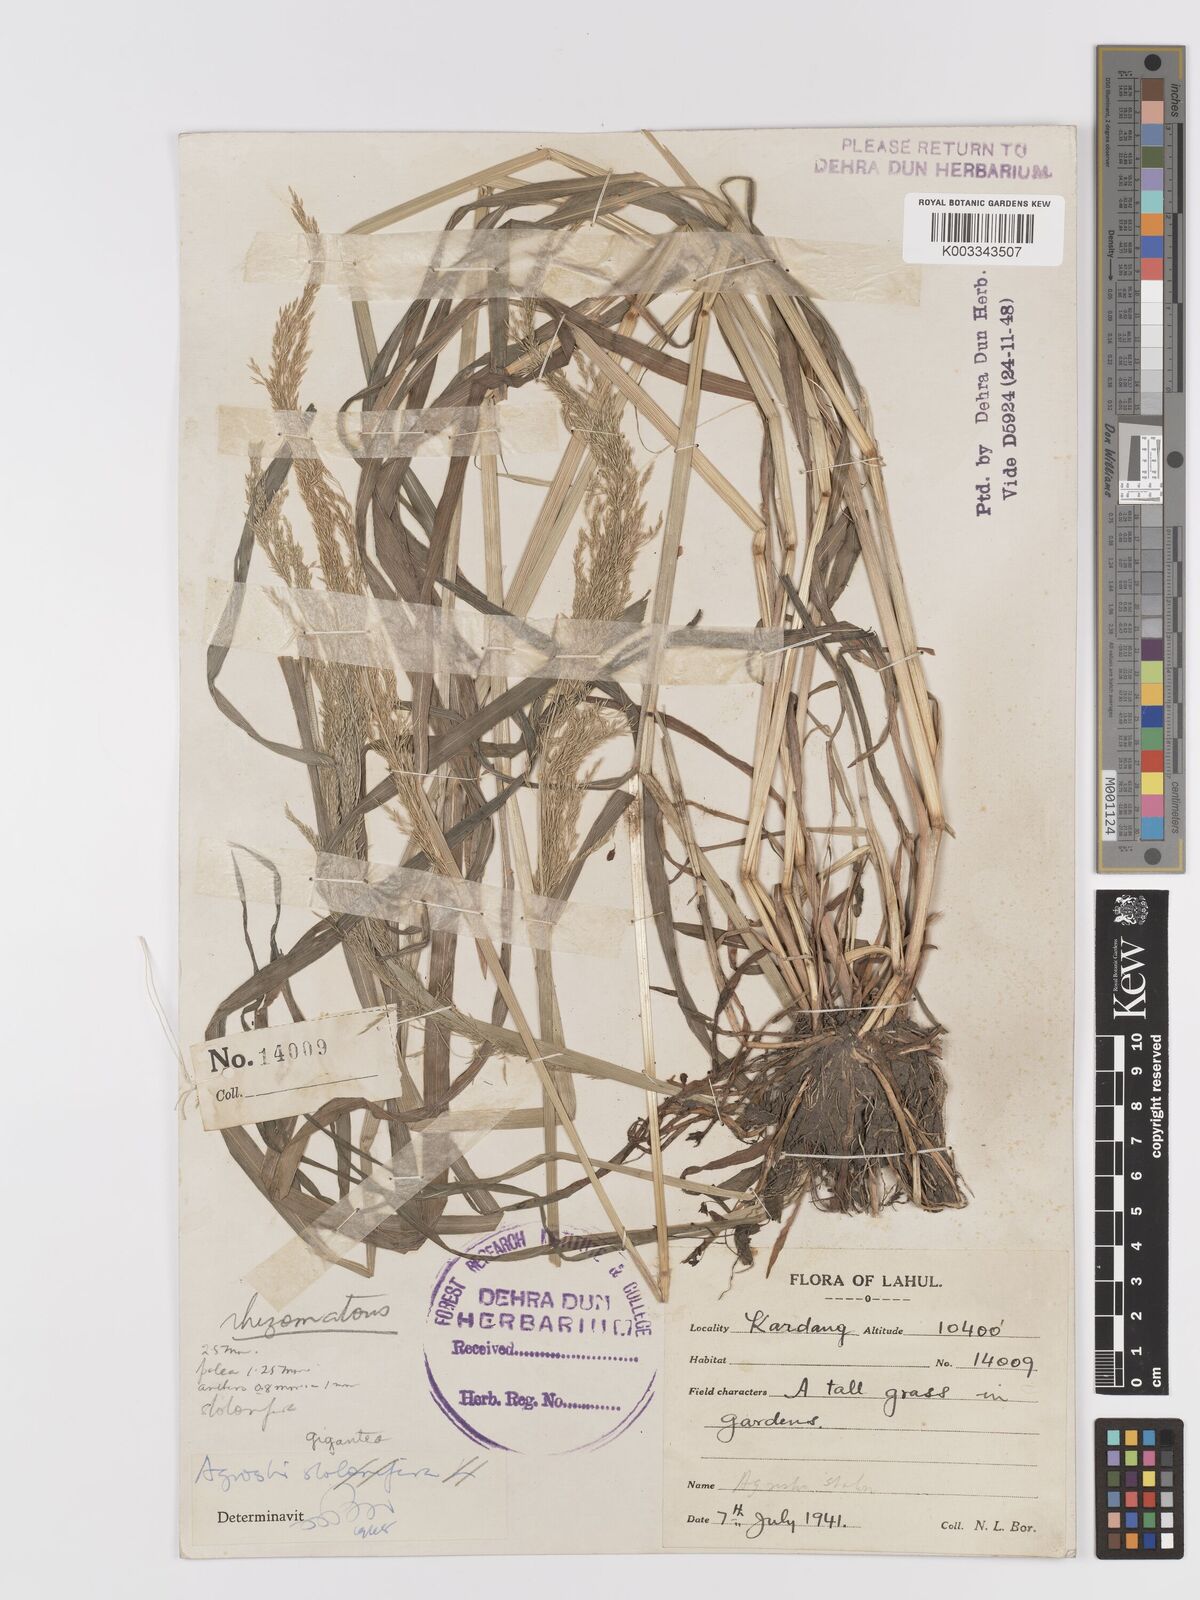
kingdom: Plantae
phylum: Tracheophyta
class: Liliopsida
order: Poales
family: Poaceae
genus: Agrostis
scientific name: Agrostis gigantea
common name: Black bent
